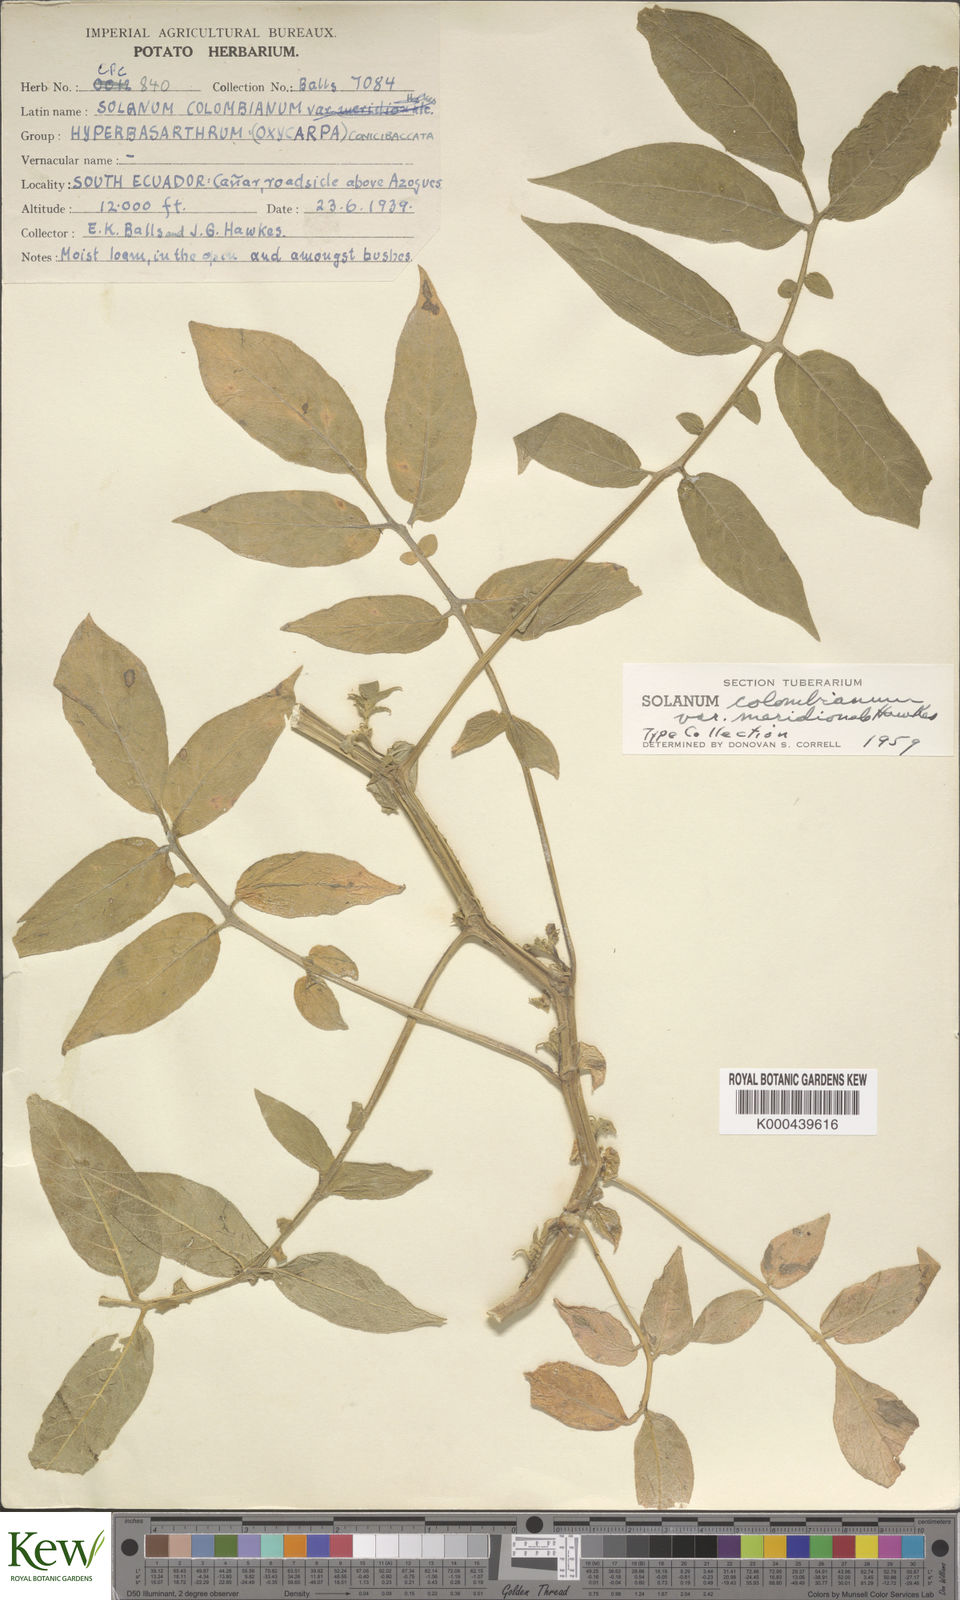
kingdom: Plantae
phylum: Tracheophyta
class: Magnoliopsida
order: Solanales
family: Solanaceae
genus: Solanum
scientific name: Solanum colombianum
